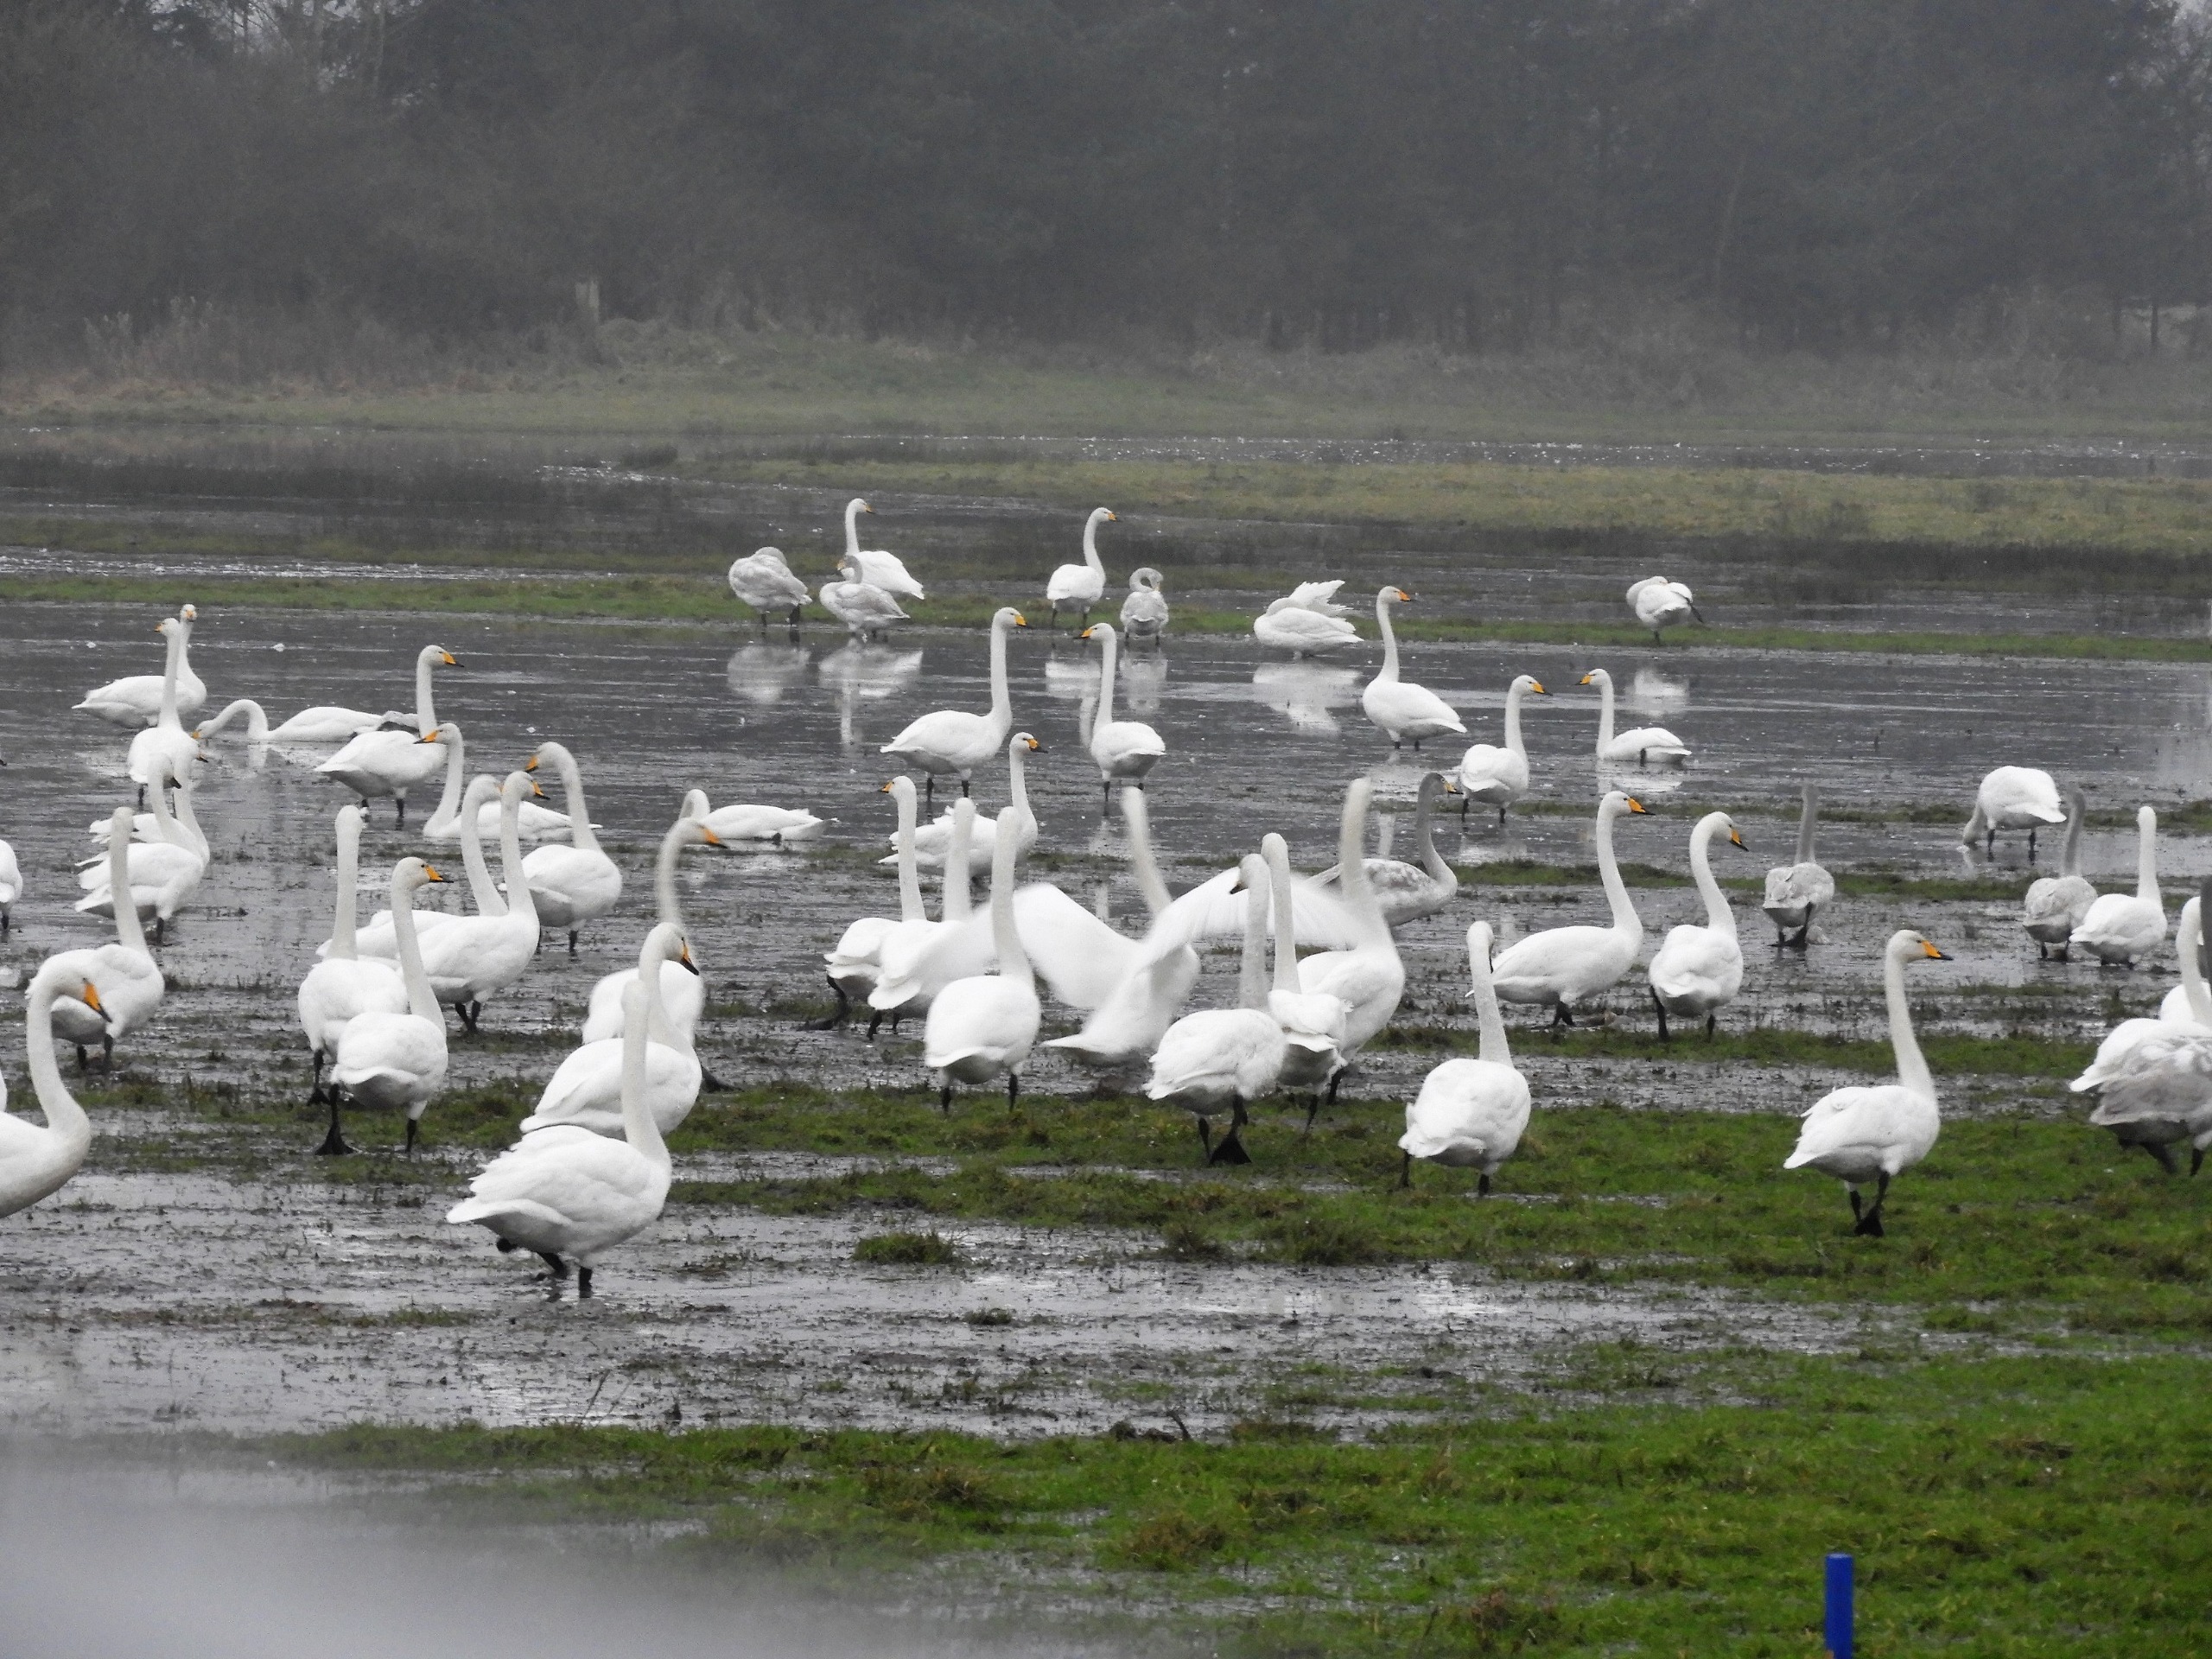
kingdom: Animalia
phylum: Chordata
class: Aves
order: Anseriformes
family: Anatidae
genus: Cygnus
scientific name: Cygnus cygnus
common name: Sangsvane
